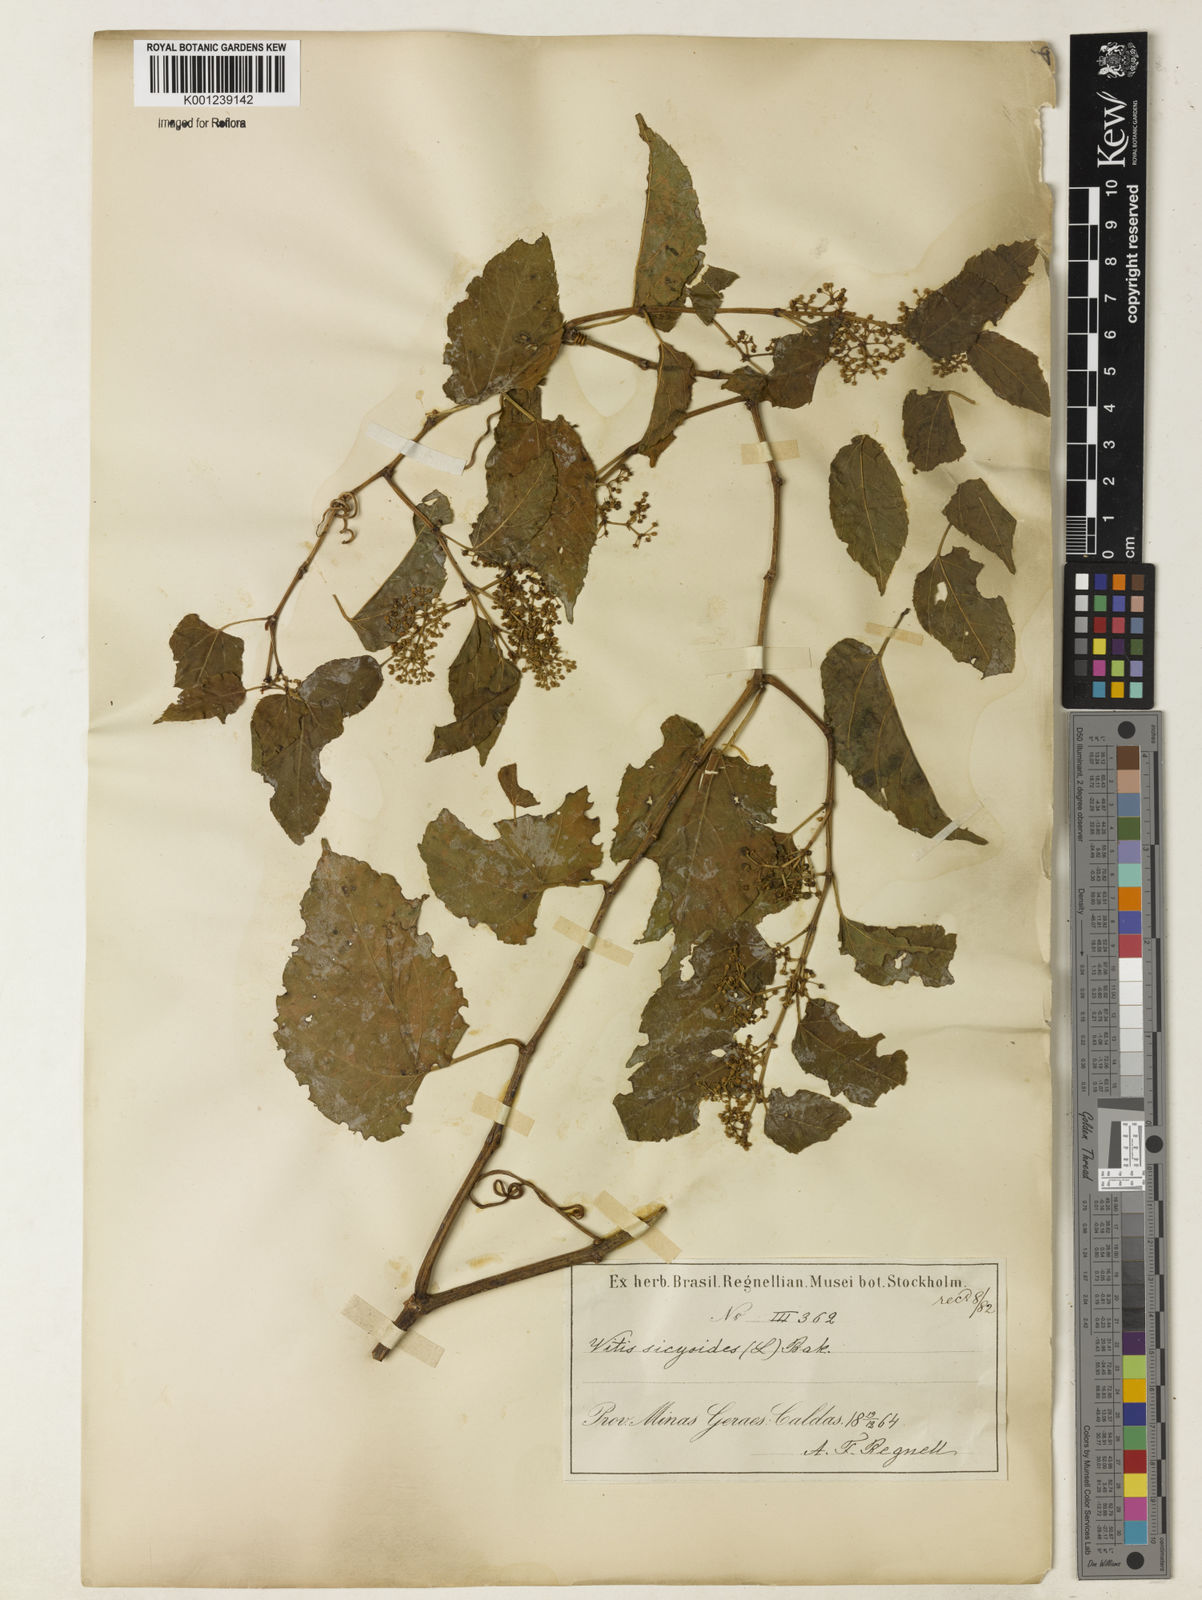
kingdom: Plantae
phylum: Tracheophyta
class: Magnoliopsida
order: Vitales
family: Vitaceae
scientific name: Vitaceae
